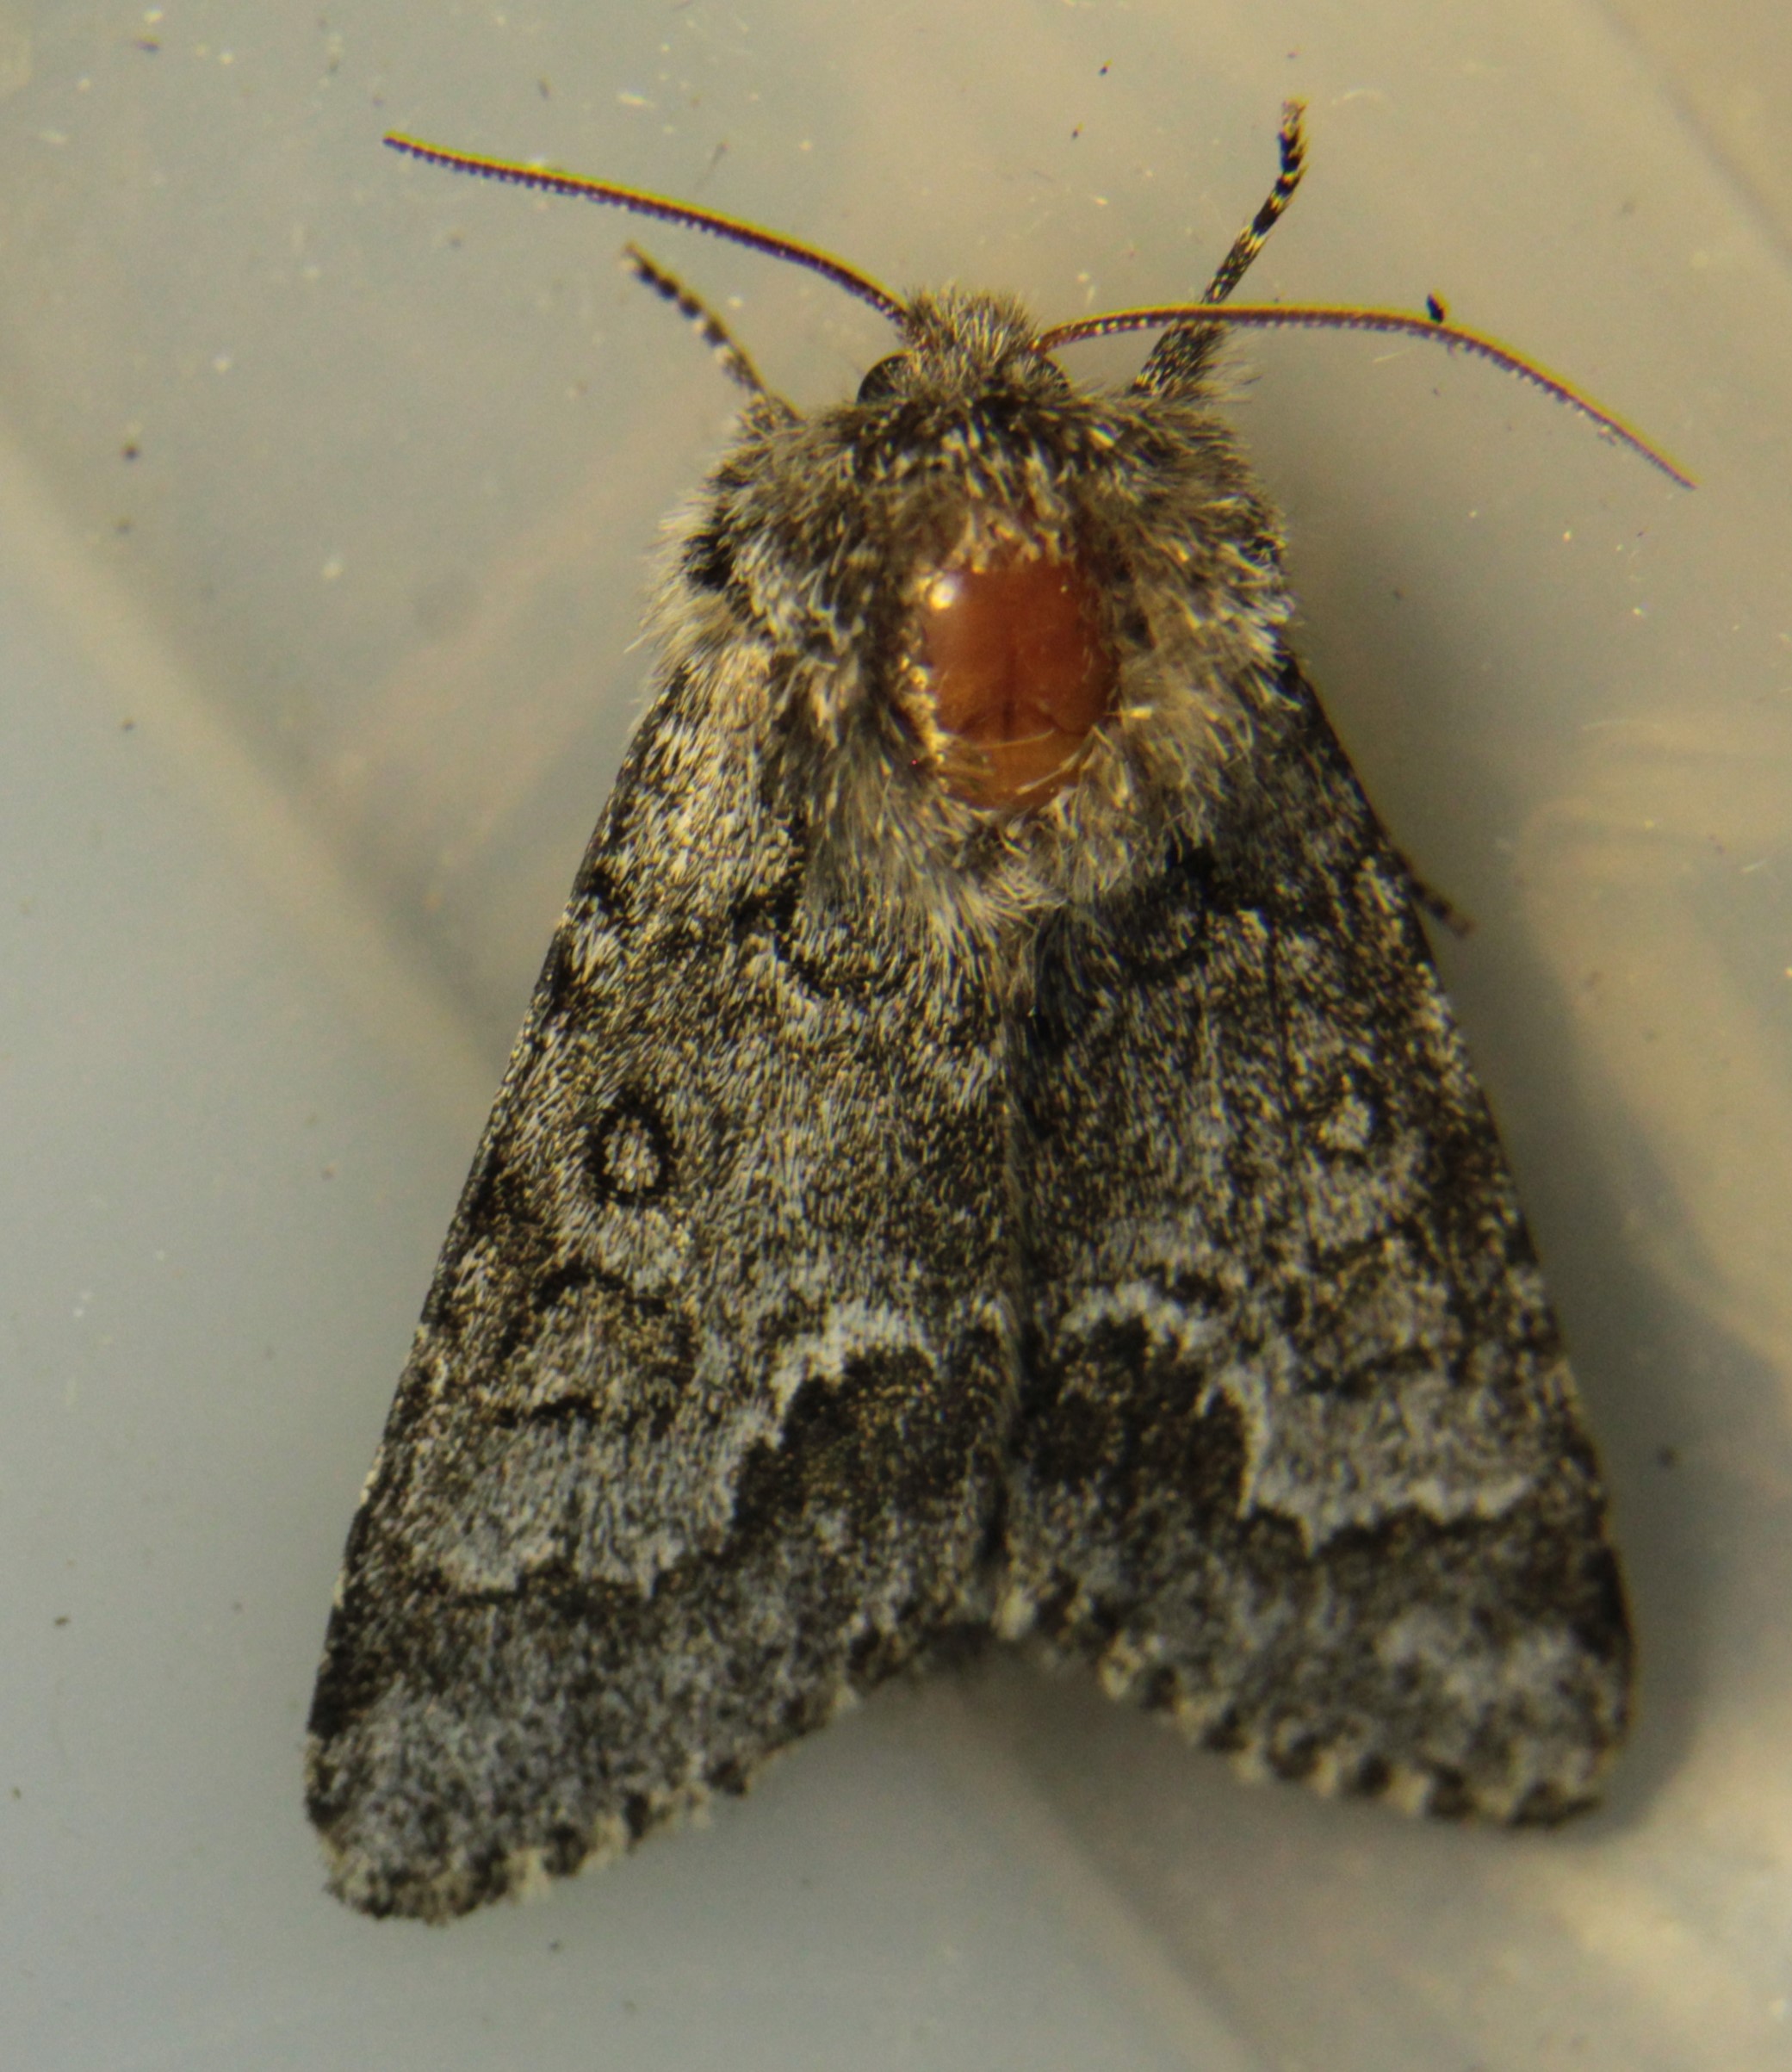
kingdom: Animalia
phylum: Arthropoda
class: Insecta
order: Lepidoptera
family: Noctuidae
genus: Acronicta
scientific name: Acronicta menyanthidis
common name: Light knot grass
